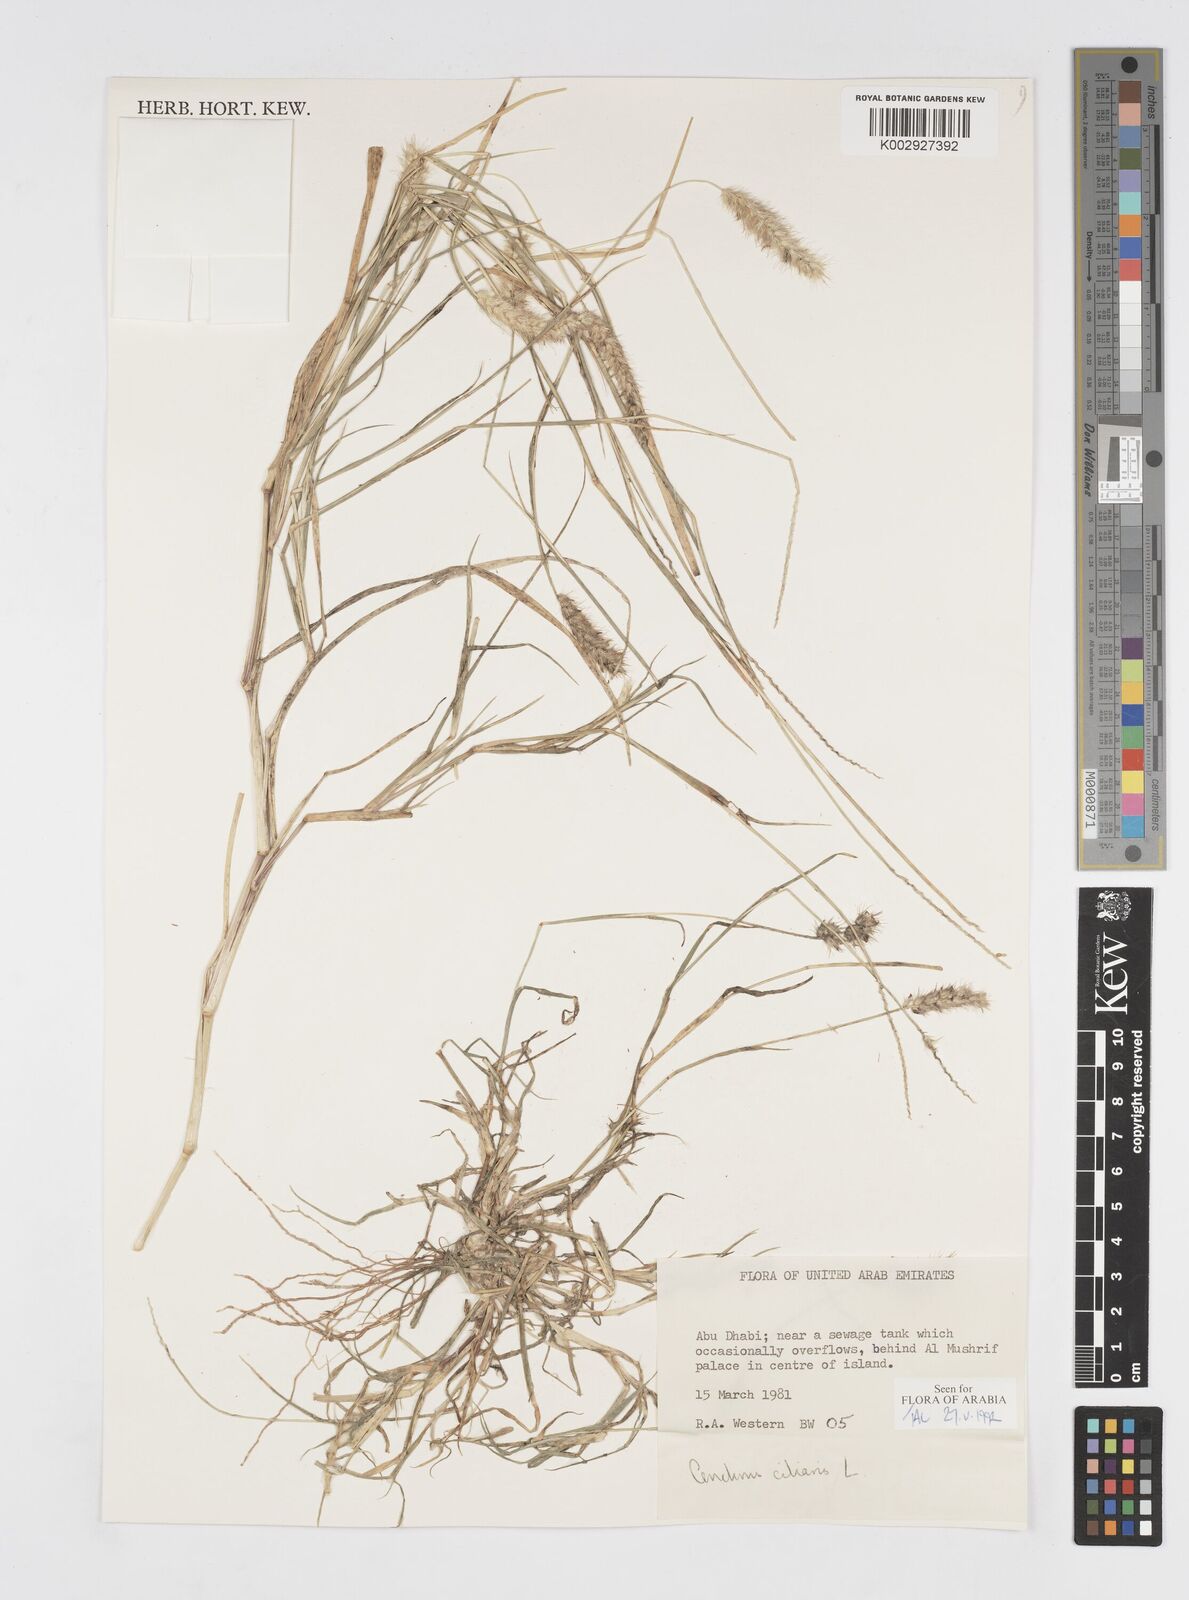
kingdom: Plantae
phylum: Tracheophyta
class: Liliopsida
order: Poales
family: Poaceae
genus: Cenchrus
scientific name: Cenchrus ciliaris
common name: Buffelgrass
